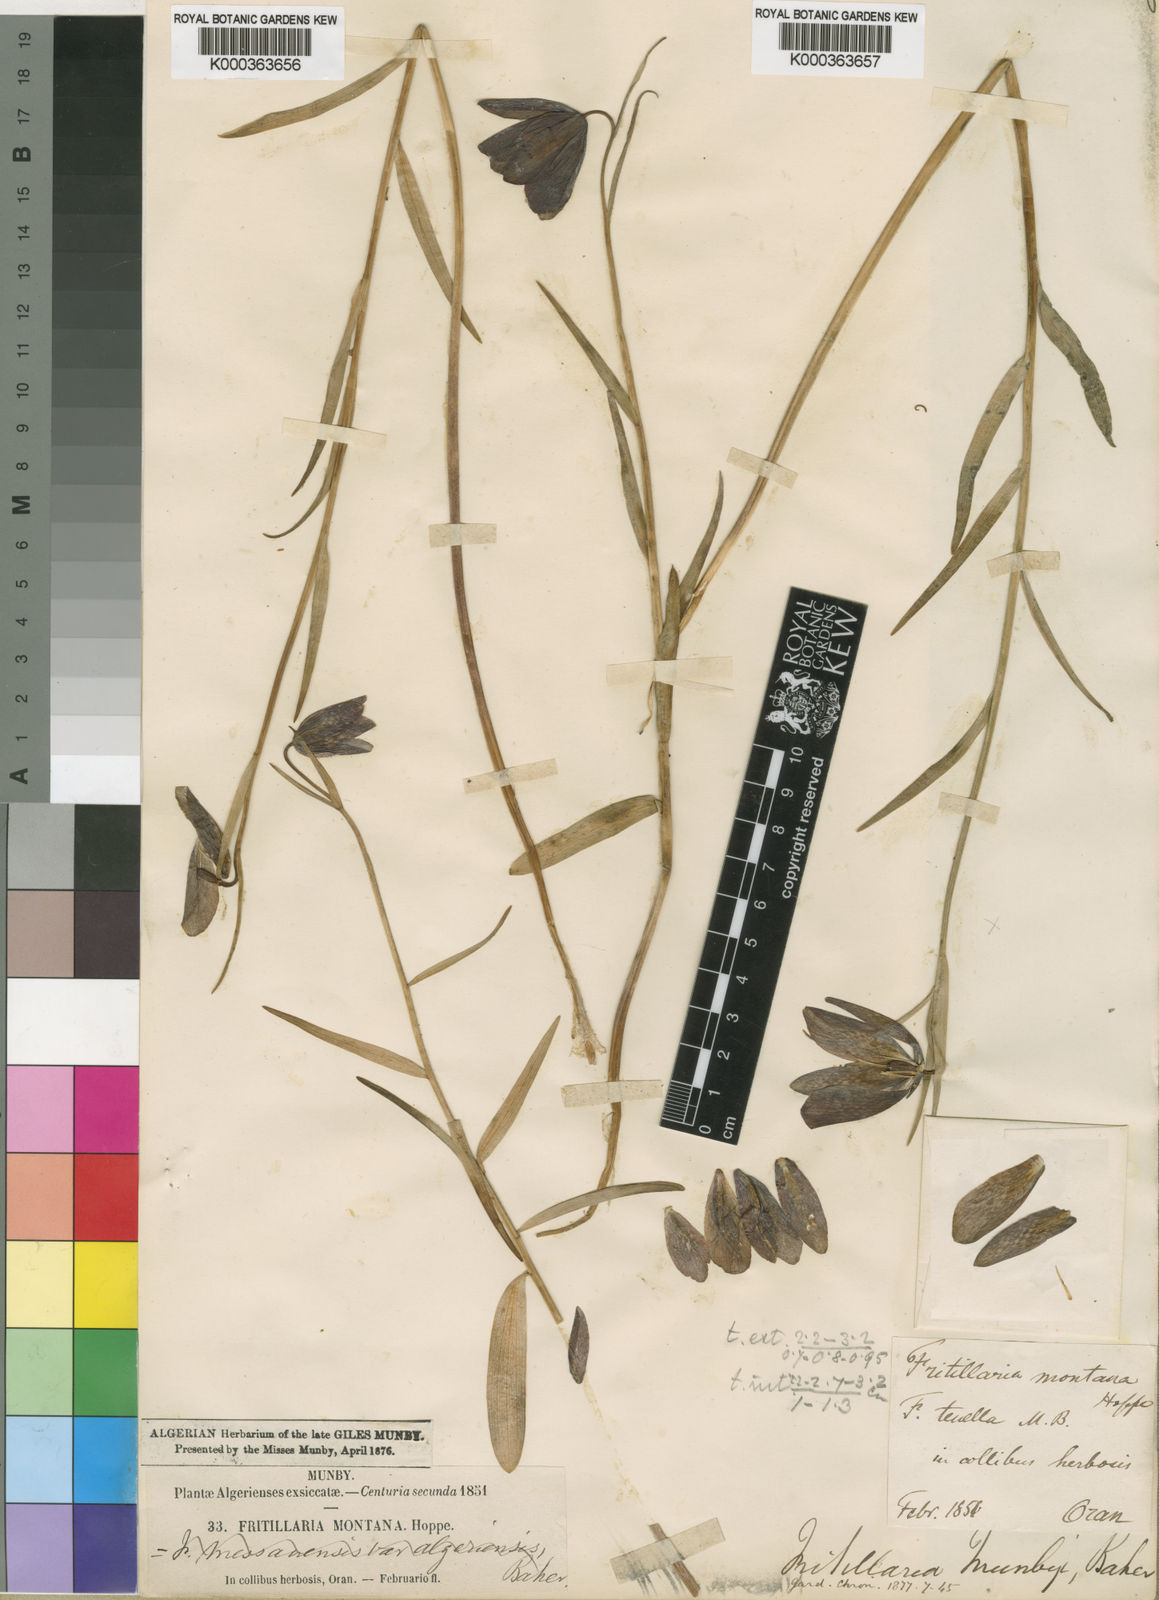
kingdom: Plantae
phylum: Tracheophyta
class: Liliopsida
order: Liliales
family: Liliaceae
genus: Fritillaria
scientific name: Fritillaria oranensis
